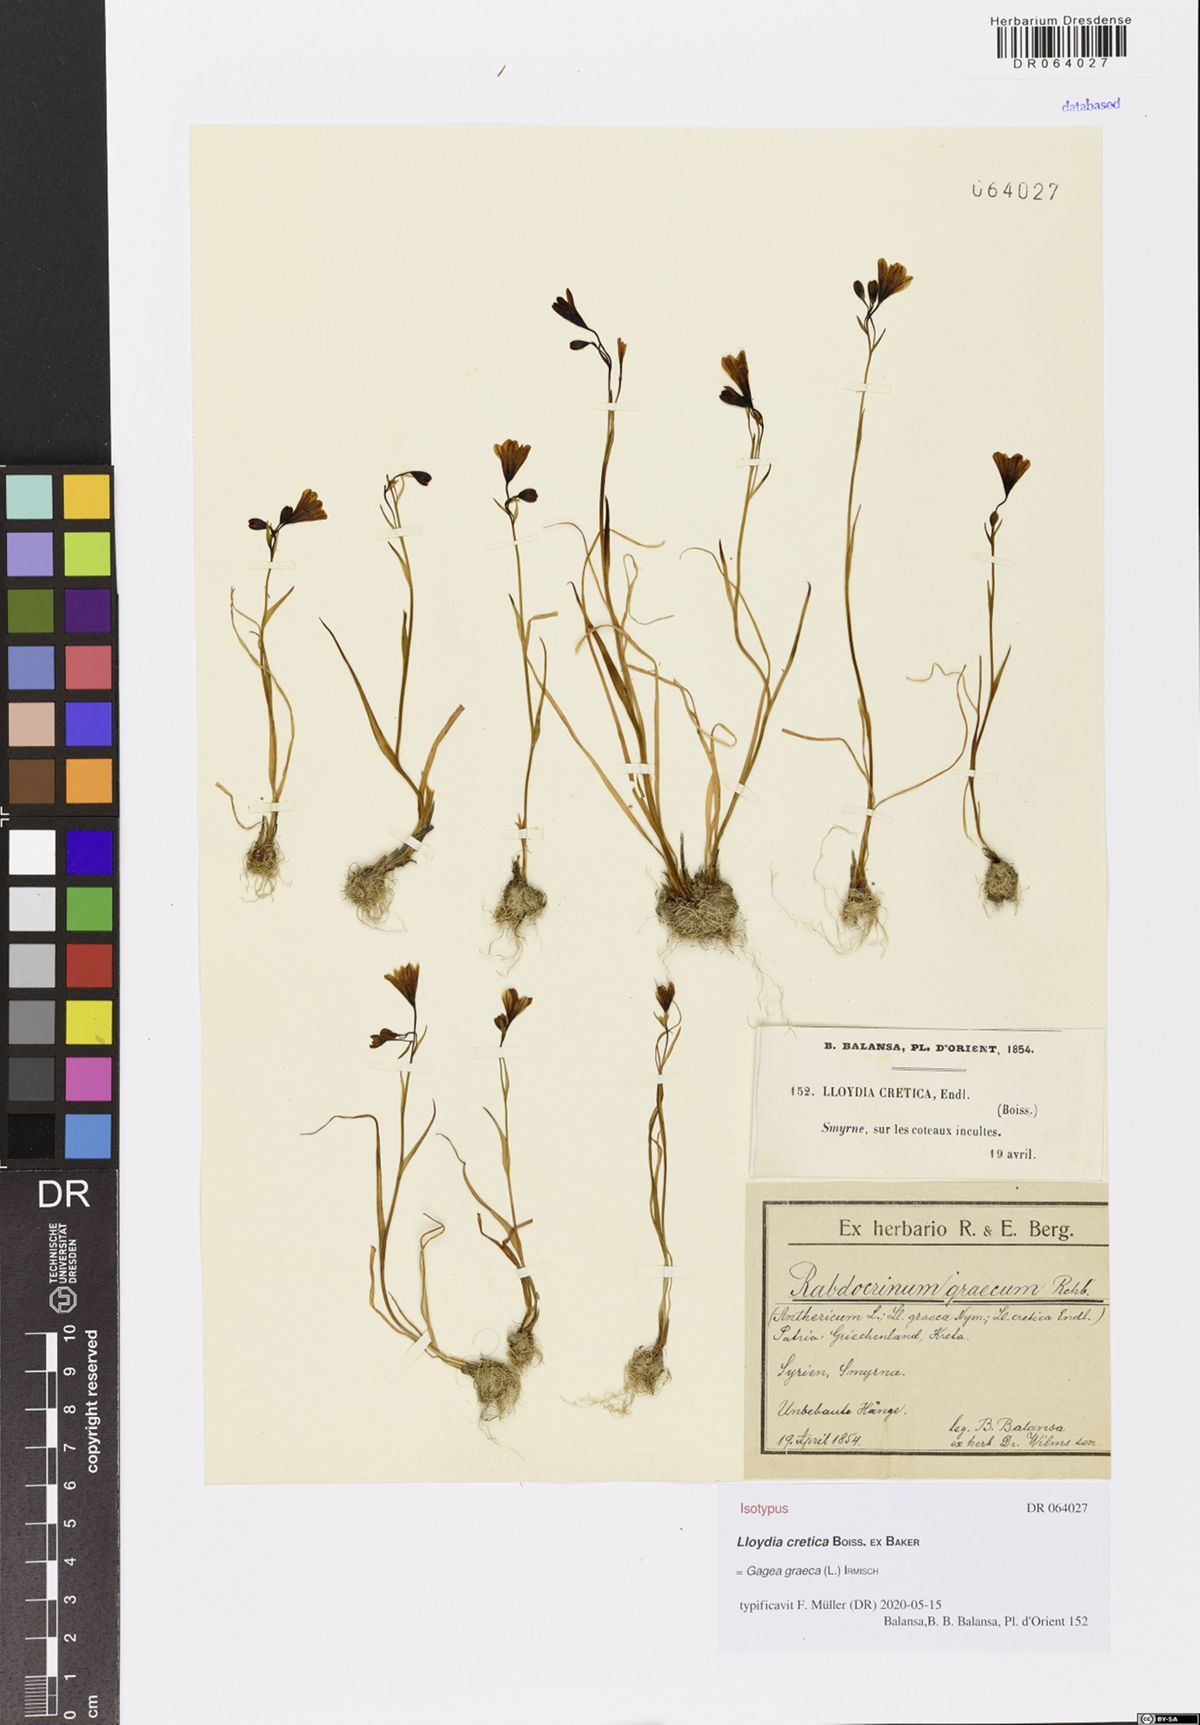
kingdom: Plantae
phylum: Tracheophyta
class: Liliopsida
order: Liliales
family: Liliaceae
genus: Gagea
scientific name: Gagea graeca
